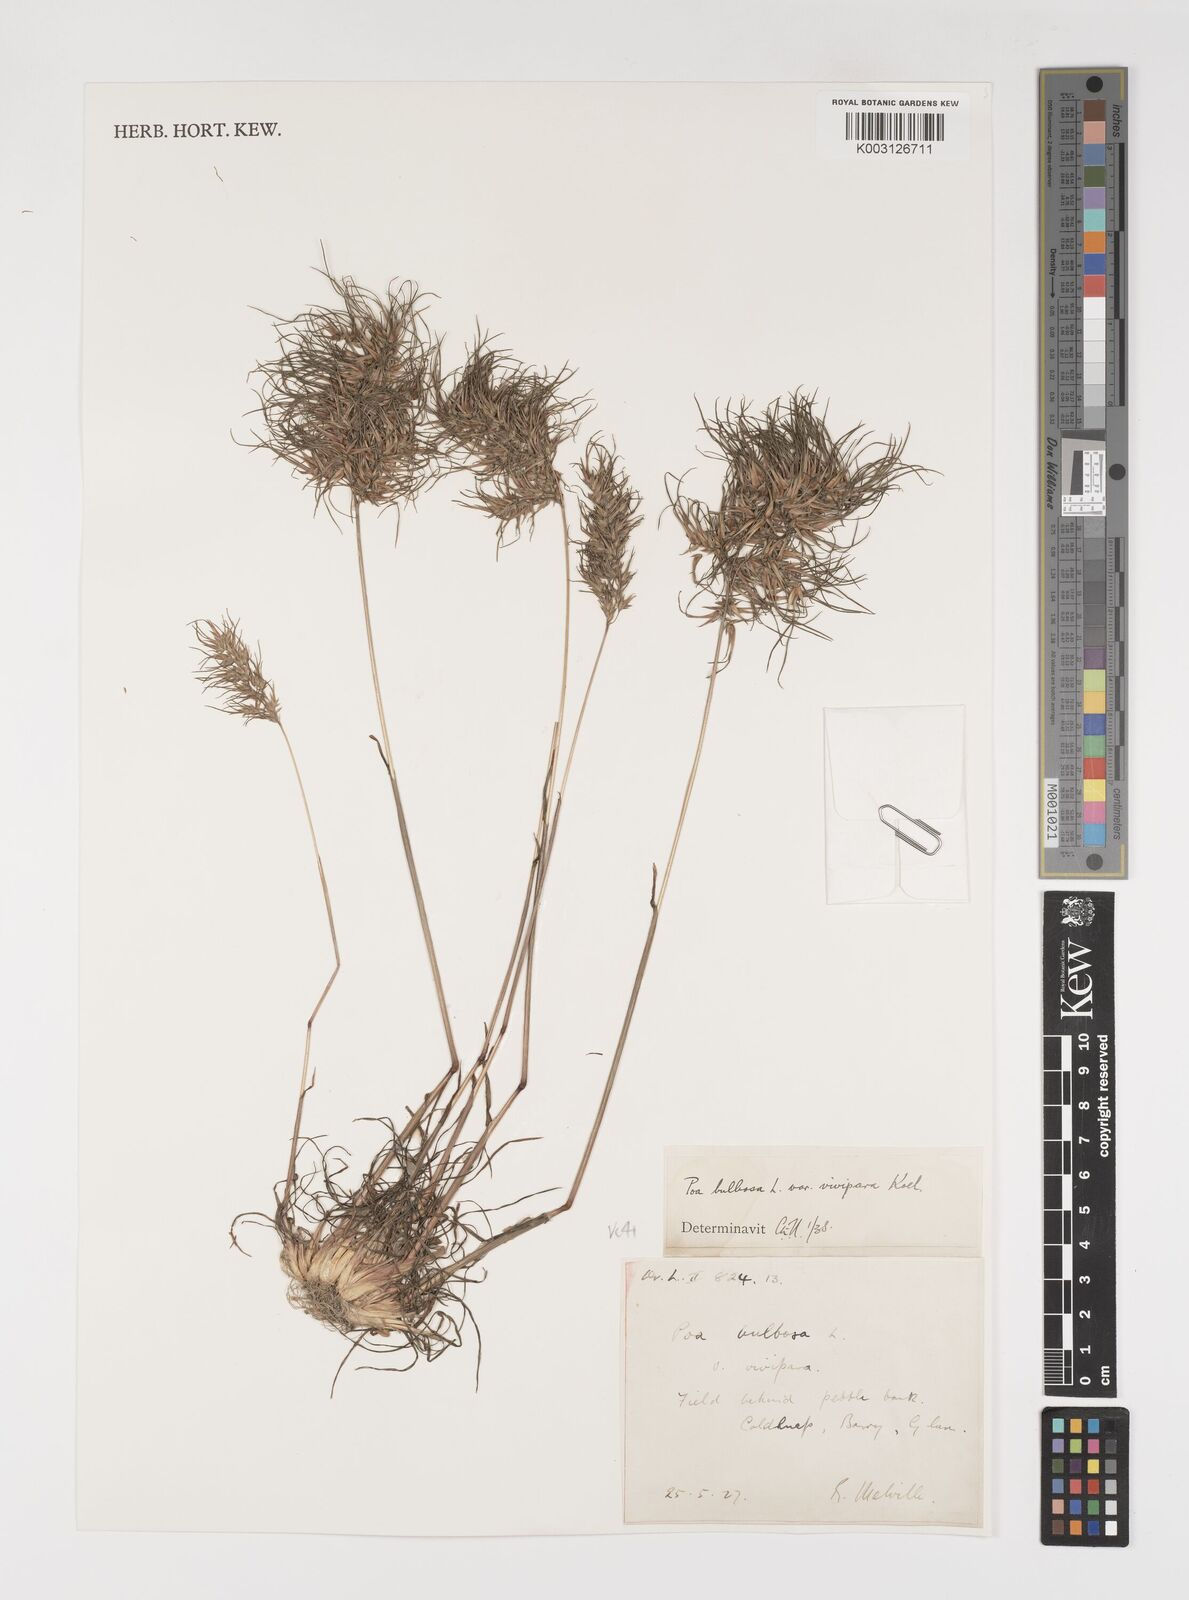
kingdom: Plantae
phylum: Tracheophyta
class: Liliopsida
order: Poales
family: Poaceae
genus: Poa
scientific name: Poa bulbosa
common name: Bulbous bluegrass
